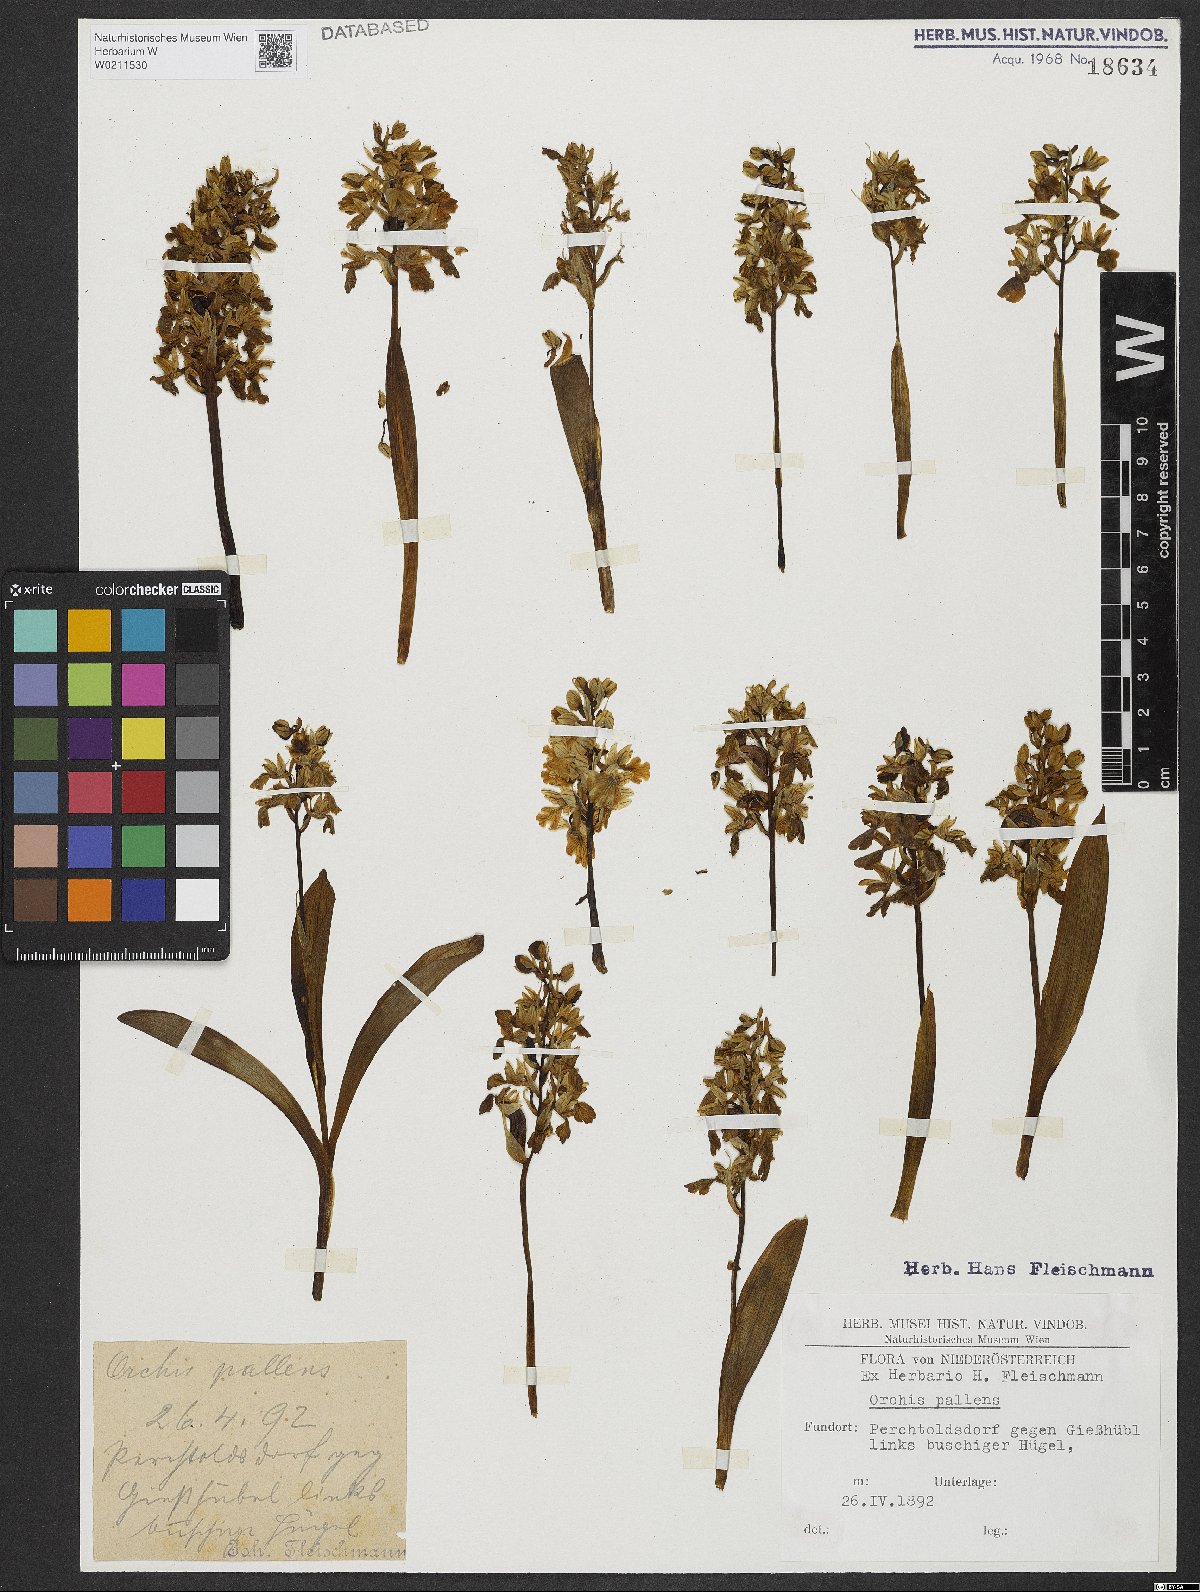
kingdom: Plantae
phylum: Tracheophyta
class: Liliopsida
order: Asparagales
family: Orchidaceae
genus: Orchis
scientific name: Orchis pallens
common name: Pale-flowered orchid
